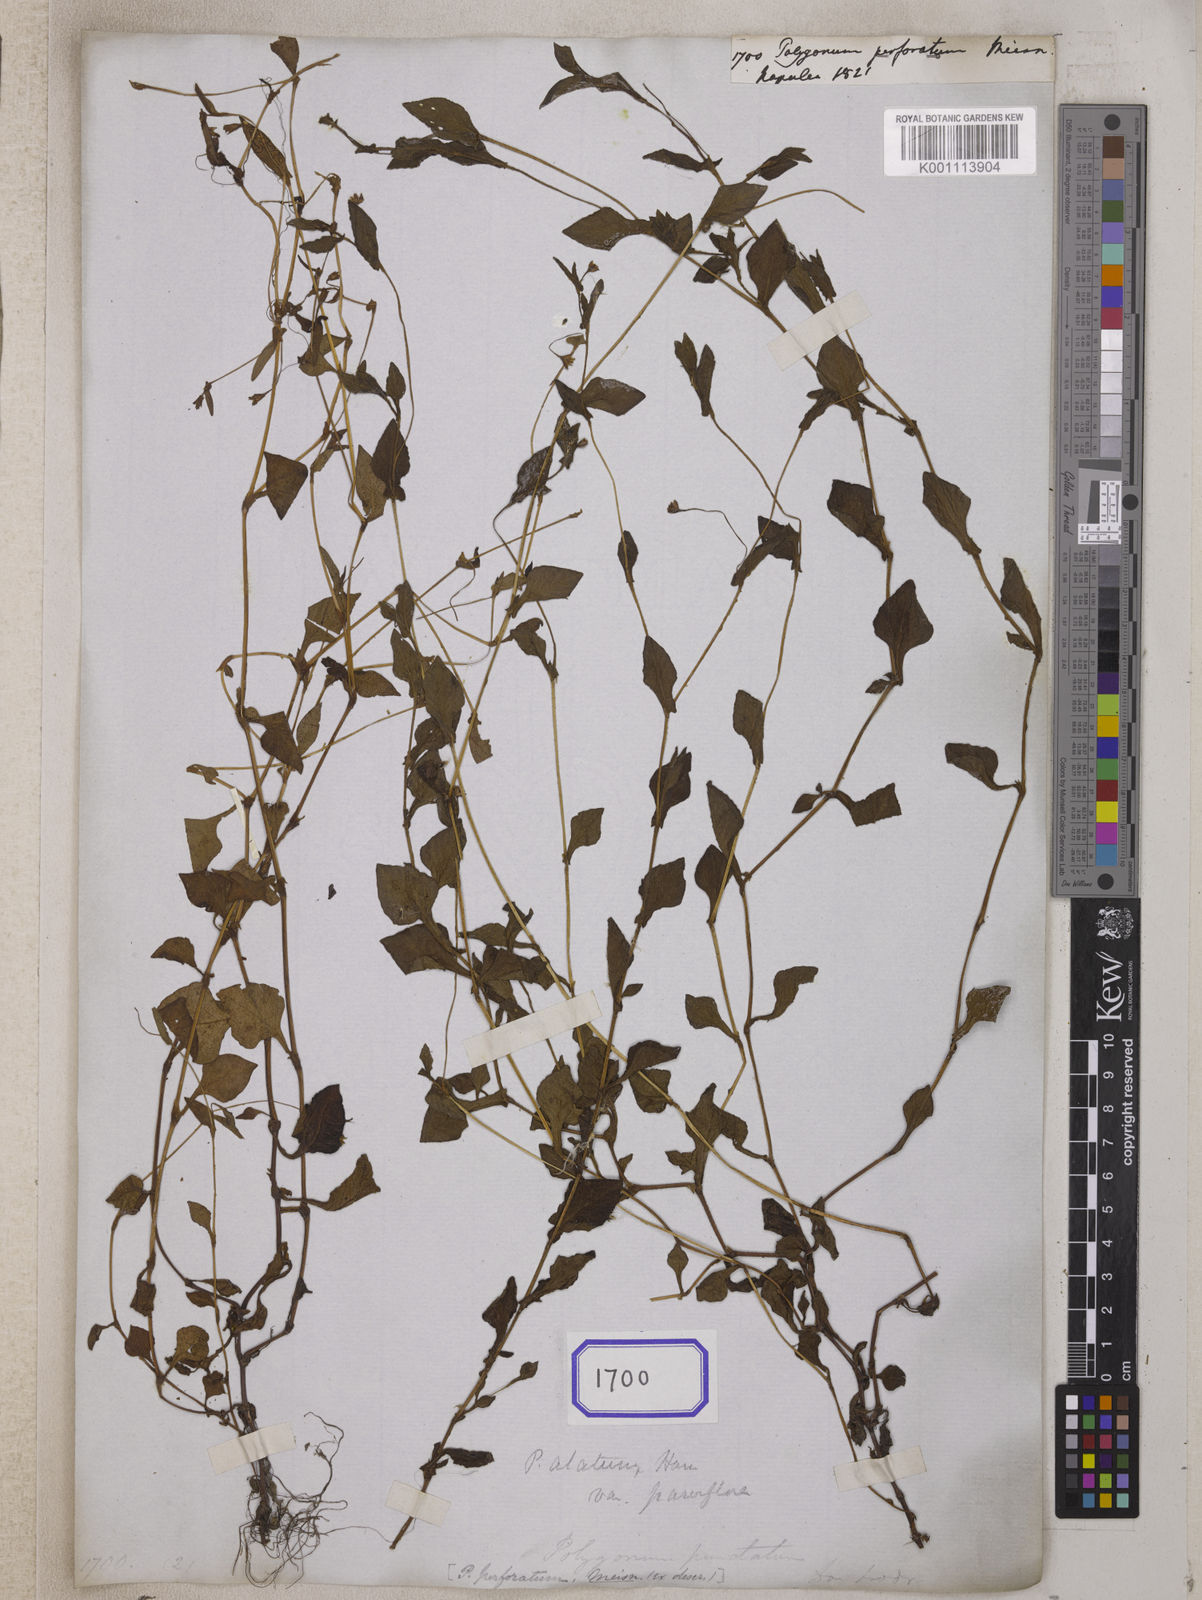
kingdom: Plantae
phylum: Tracheophyta
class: Magnoliopsida
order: Caryophyllales
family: Polygonaceae
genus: Persicaria
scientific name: Persicaria nepalensis
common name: Nepal persicaria
